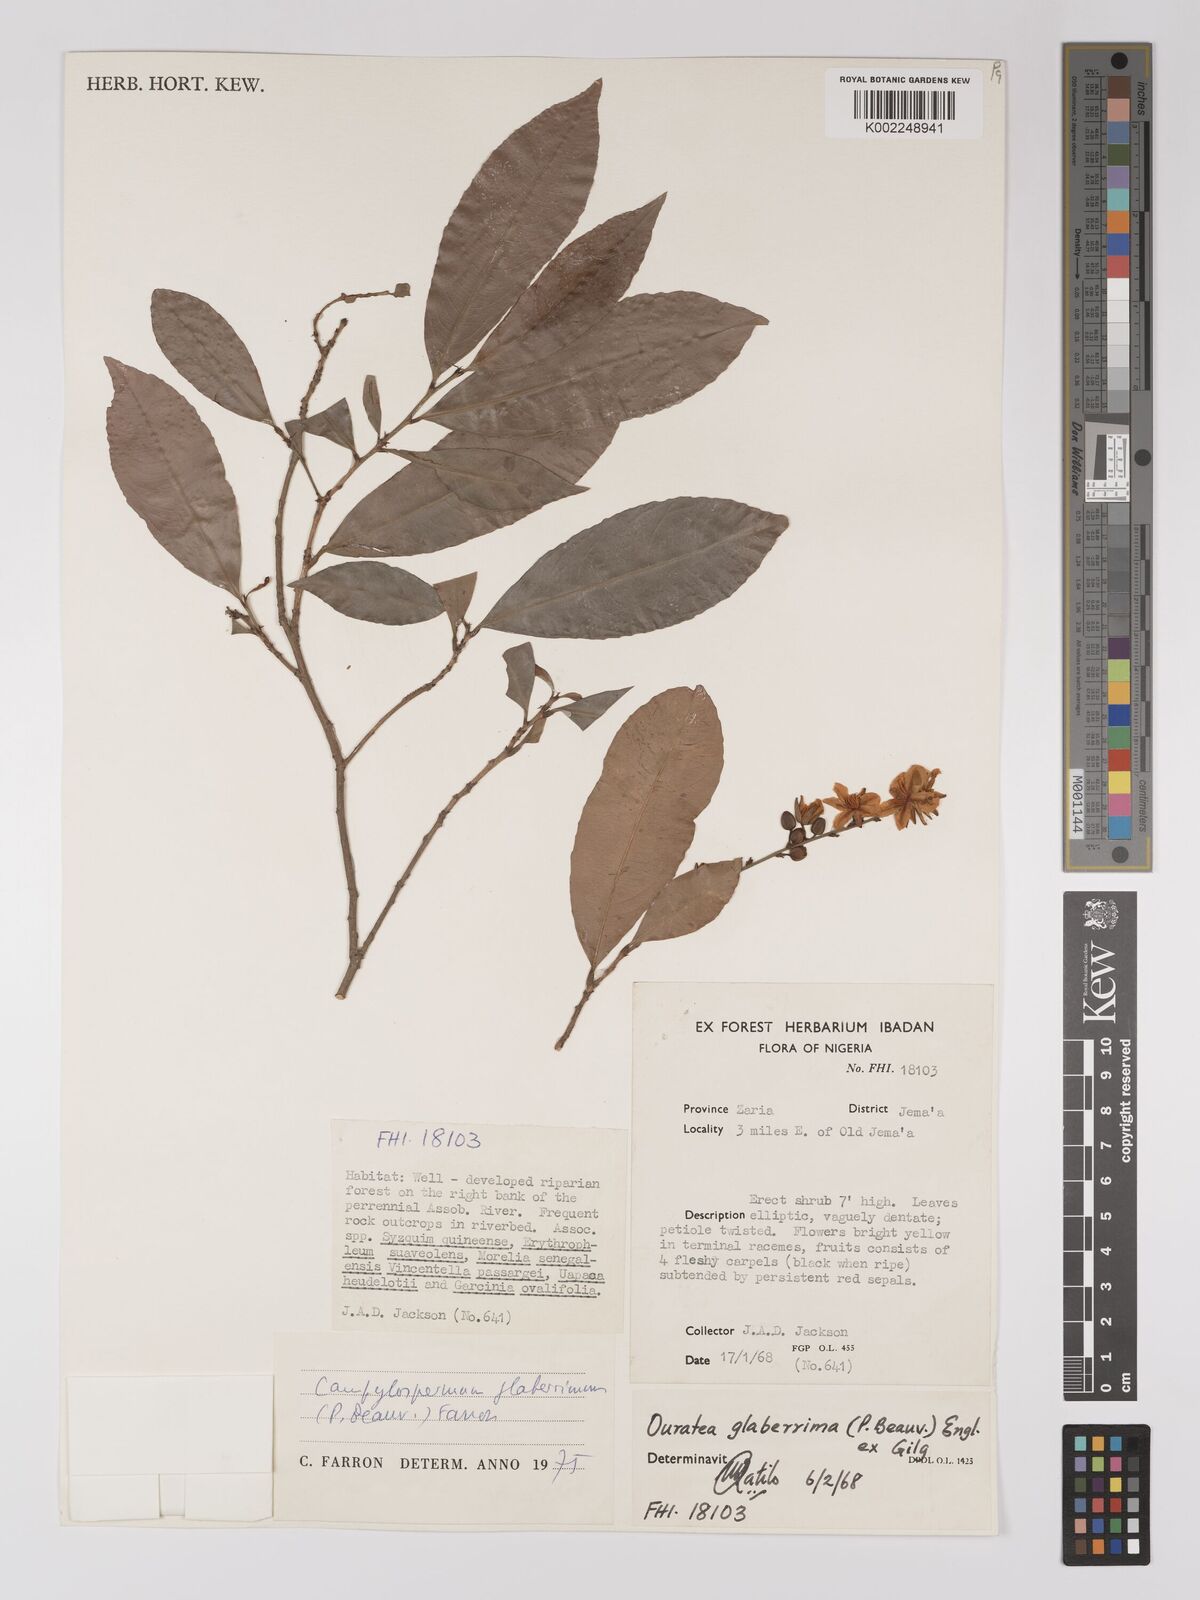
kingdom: Plantae
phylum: Tracheophyta
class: Magnoliopsida
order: Malpighiales
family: Ochnaceae
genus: Campylospermum
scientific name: Campylospermum glaberrimum
